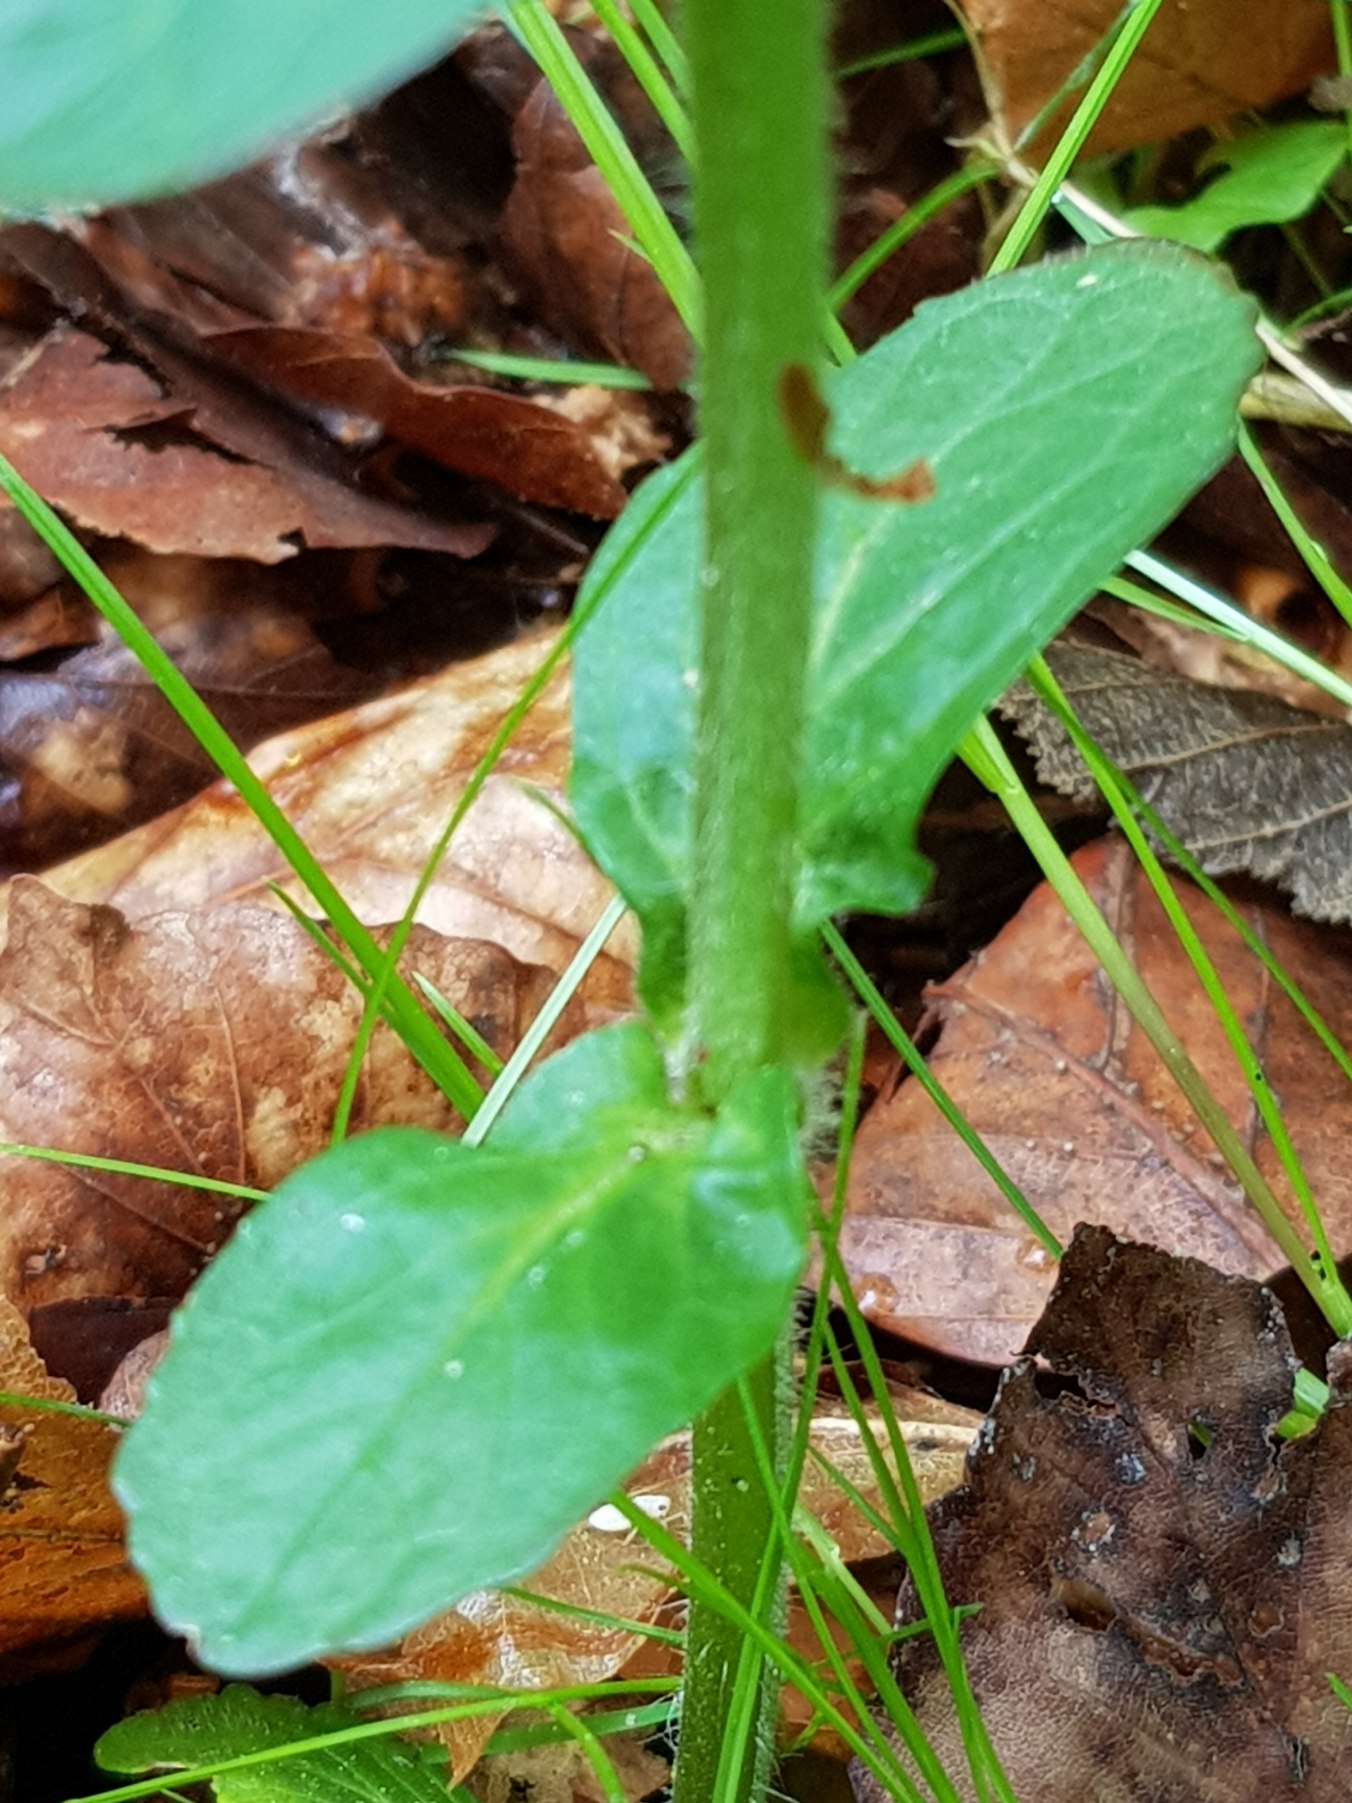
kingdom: Plantae
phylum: Tracheophyta
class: Magnoliopsida
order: Lamiales
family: Lamiaceae
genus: Ajuga
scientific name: Ajuga reptans
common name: Krybende læbeløs
